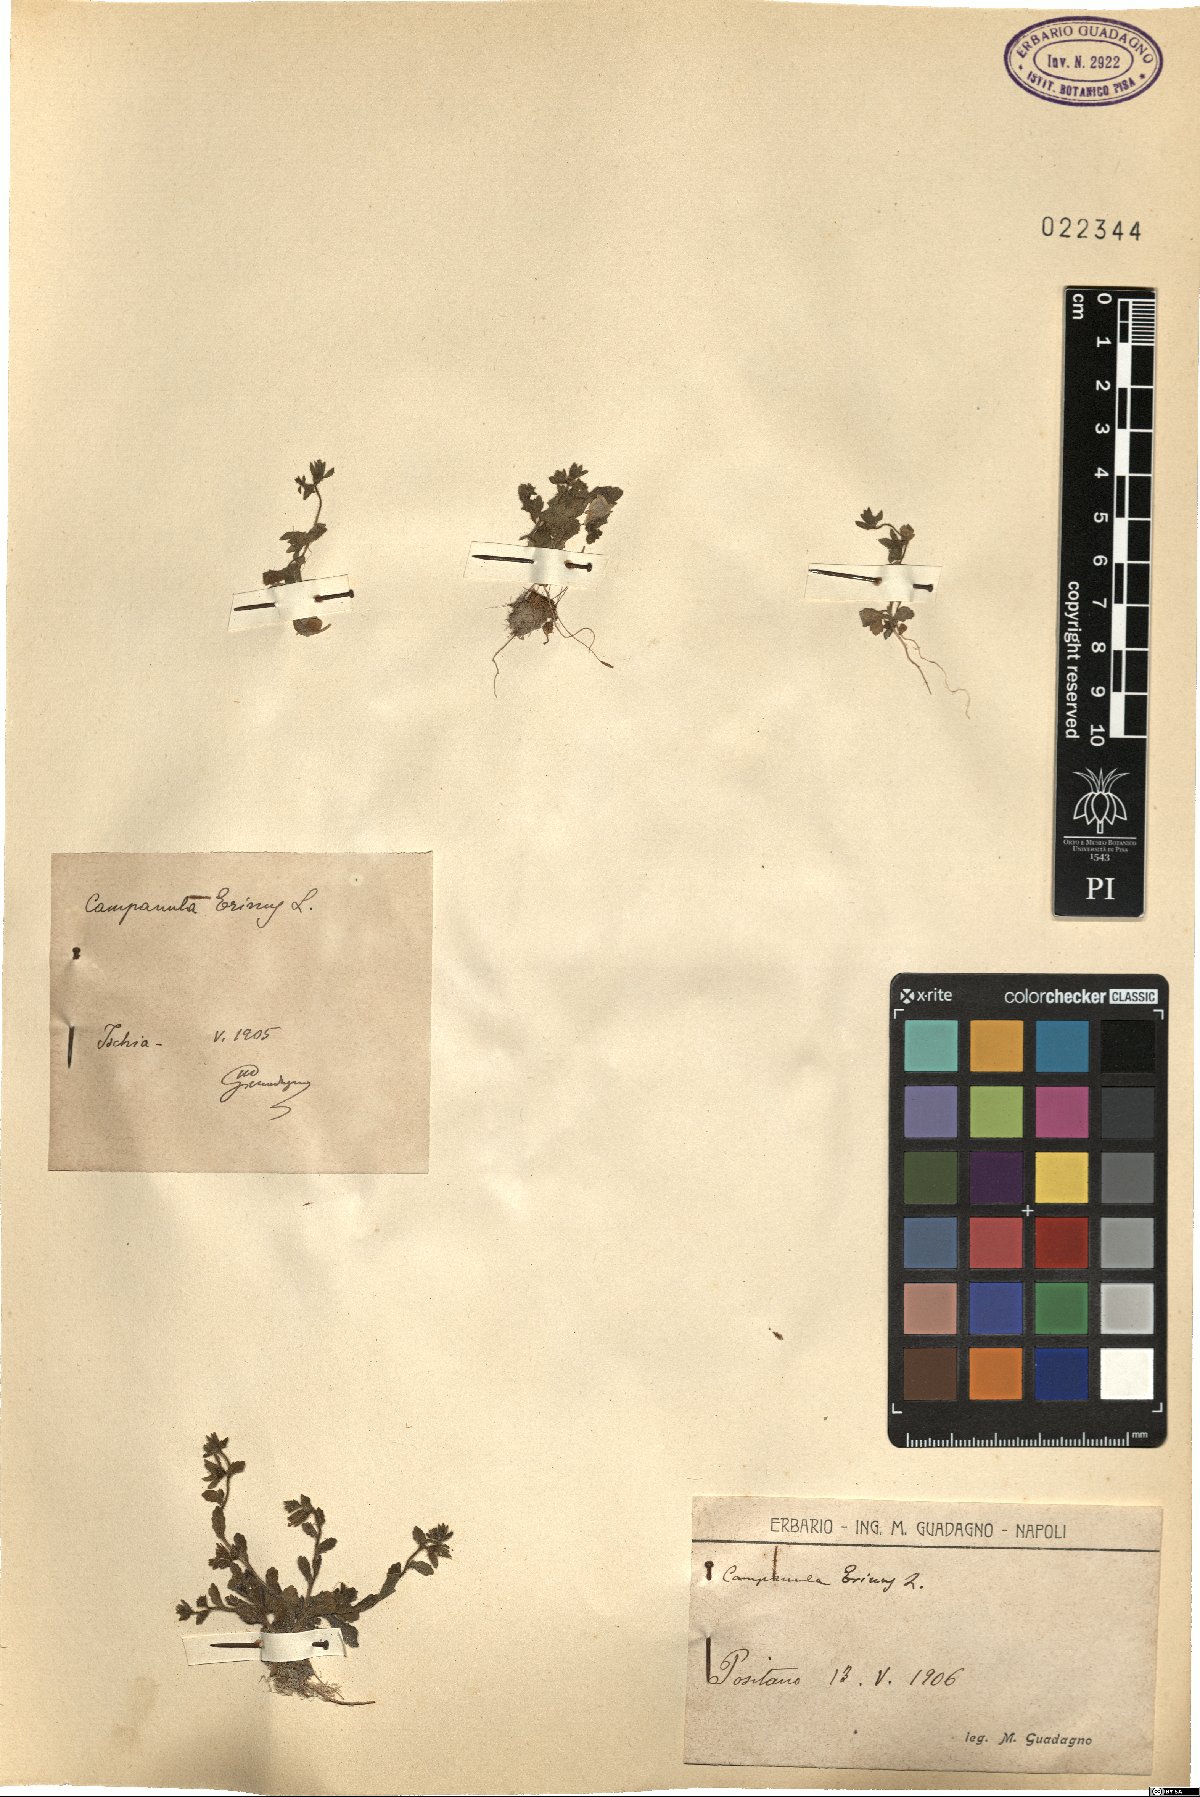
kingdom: Plantae
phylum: Tracheophyta
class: Magnoliopsida
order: Asterales
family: Campanulaceae
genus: Campanula
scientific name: Campanula erinus
